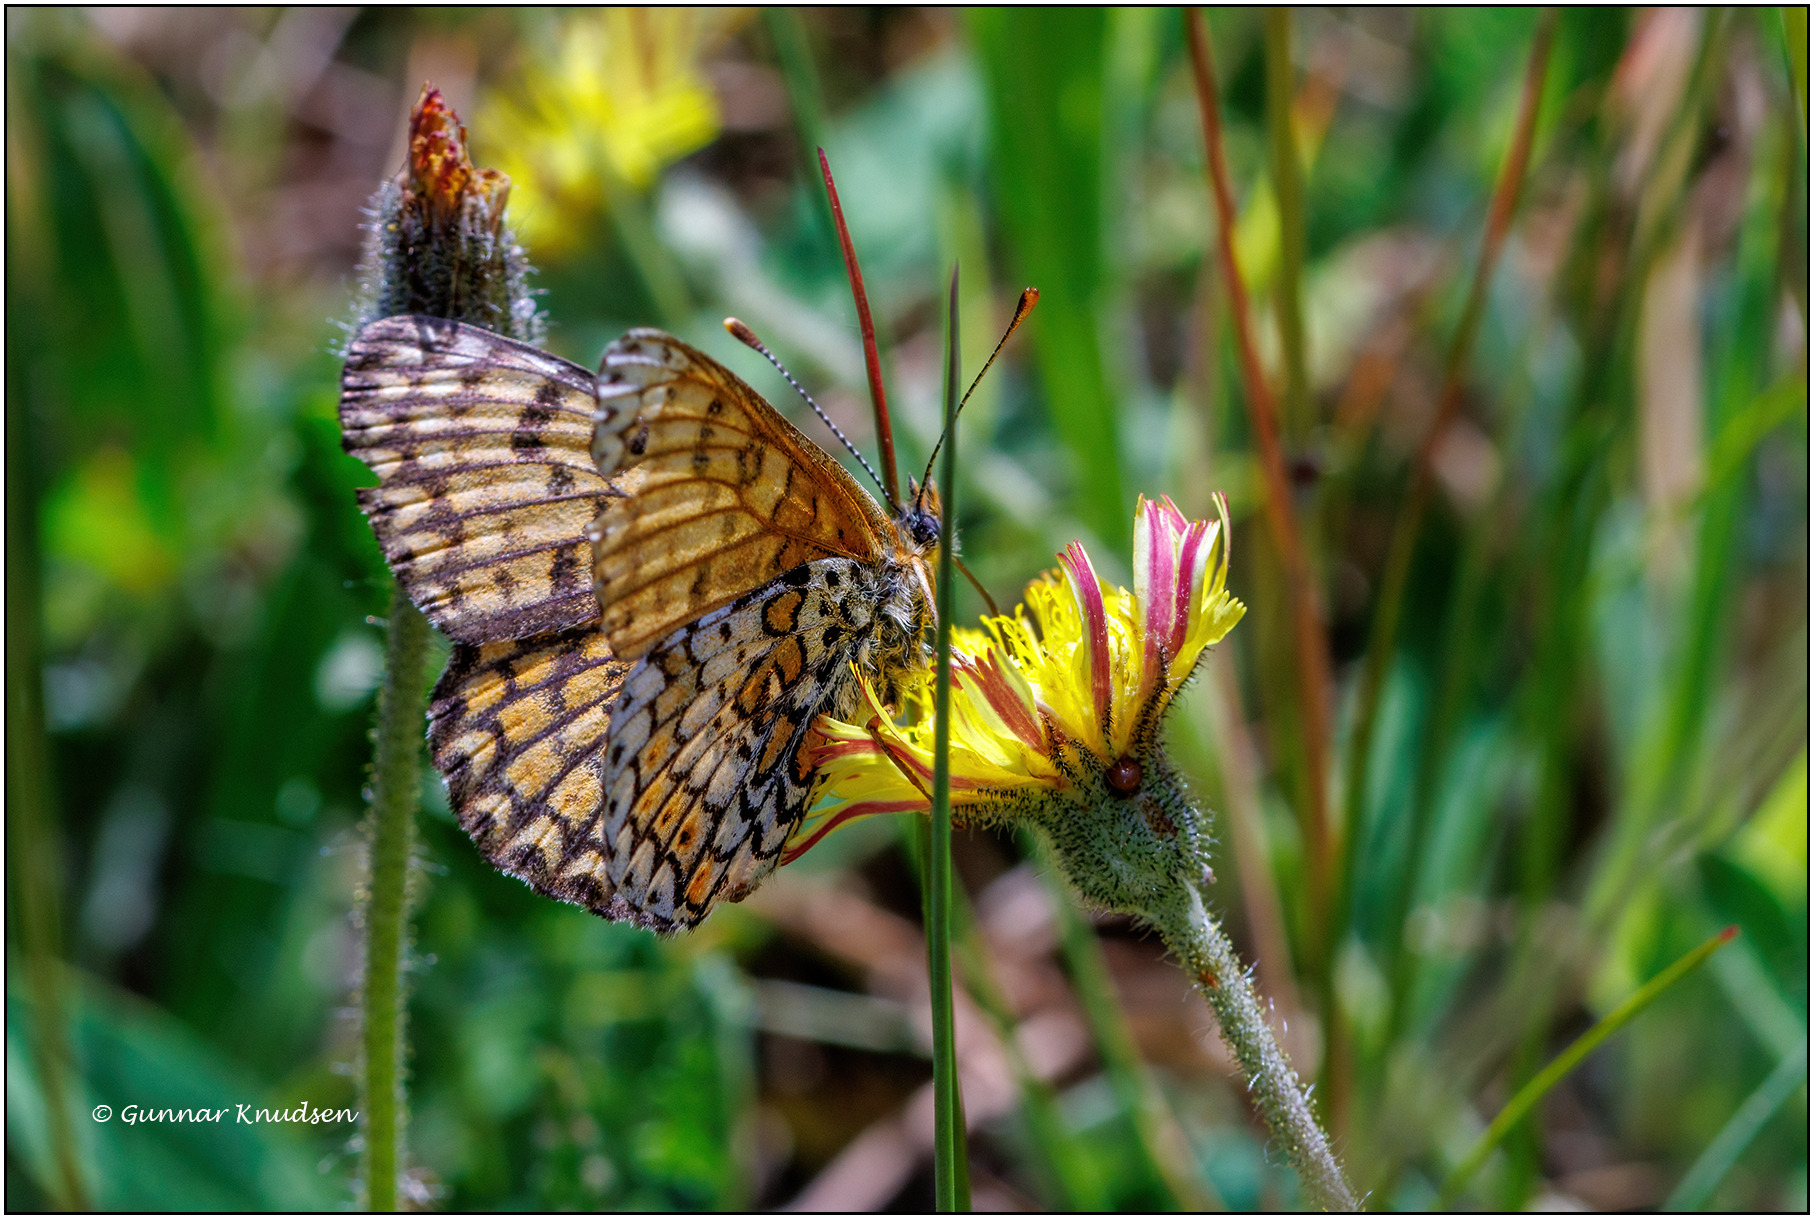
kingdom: Animalia
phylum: Arthropoda
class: Insecta
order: Lepidoptera
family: Nymphalidae
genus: Melitaea
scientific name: Melitaea cinxia
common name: Okkergul pletvinge
